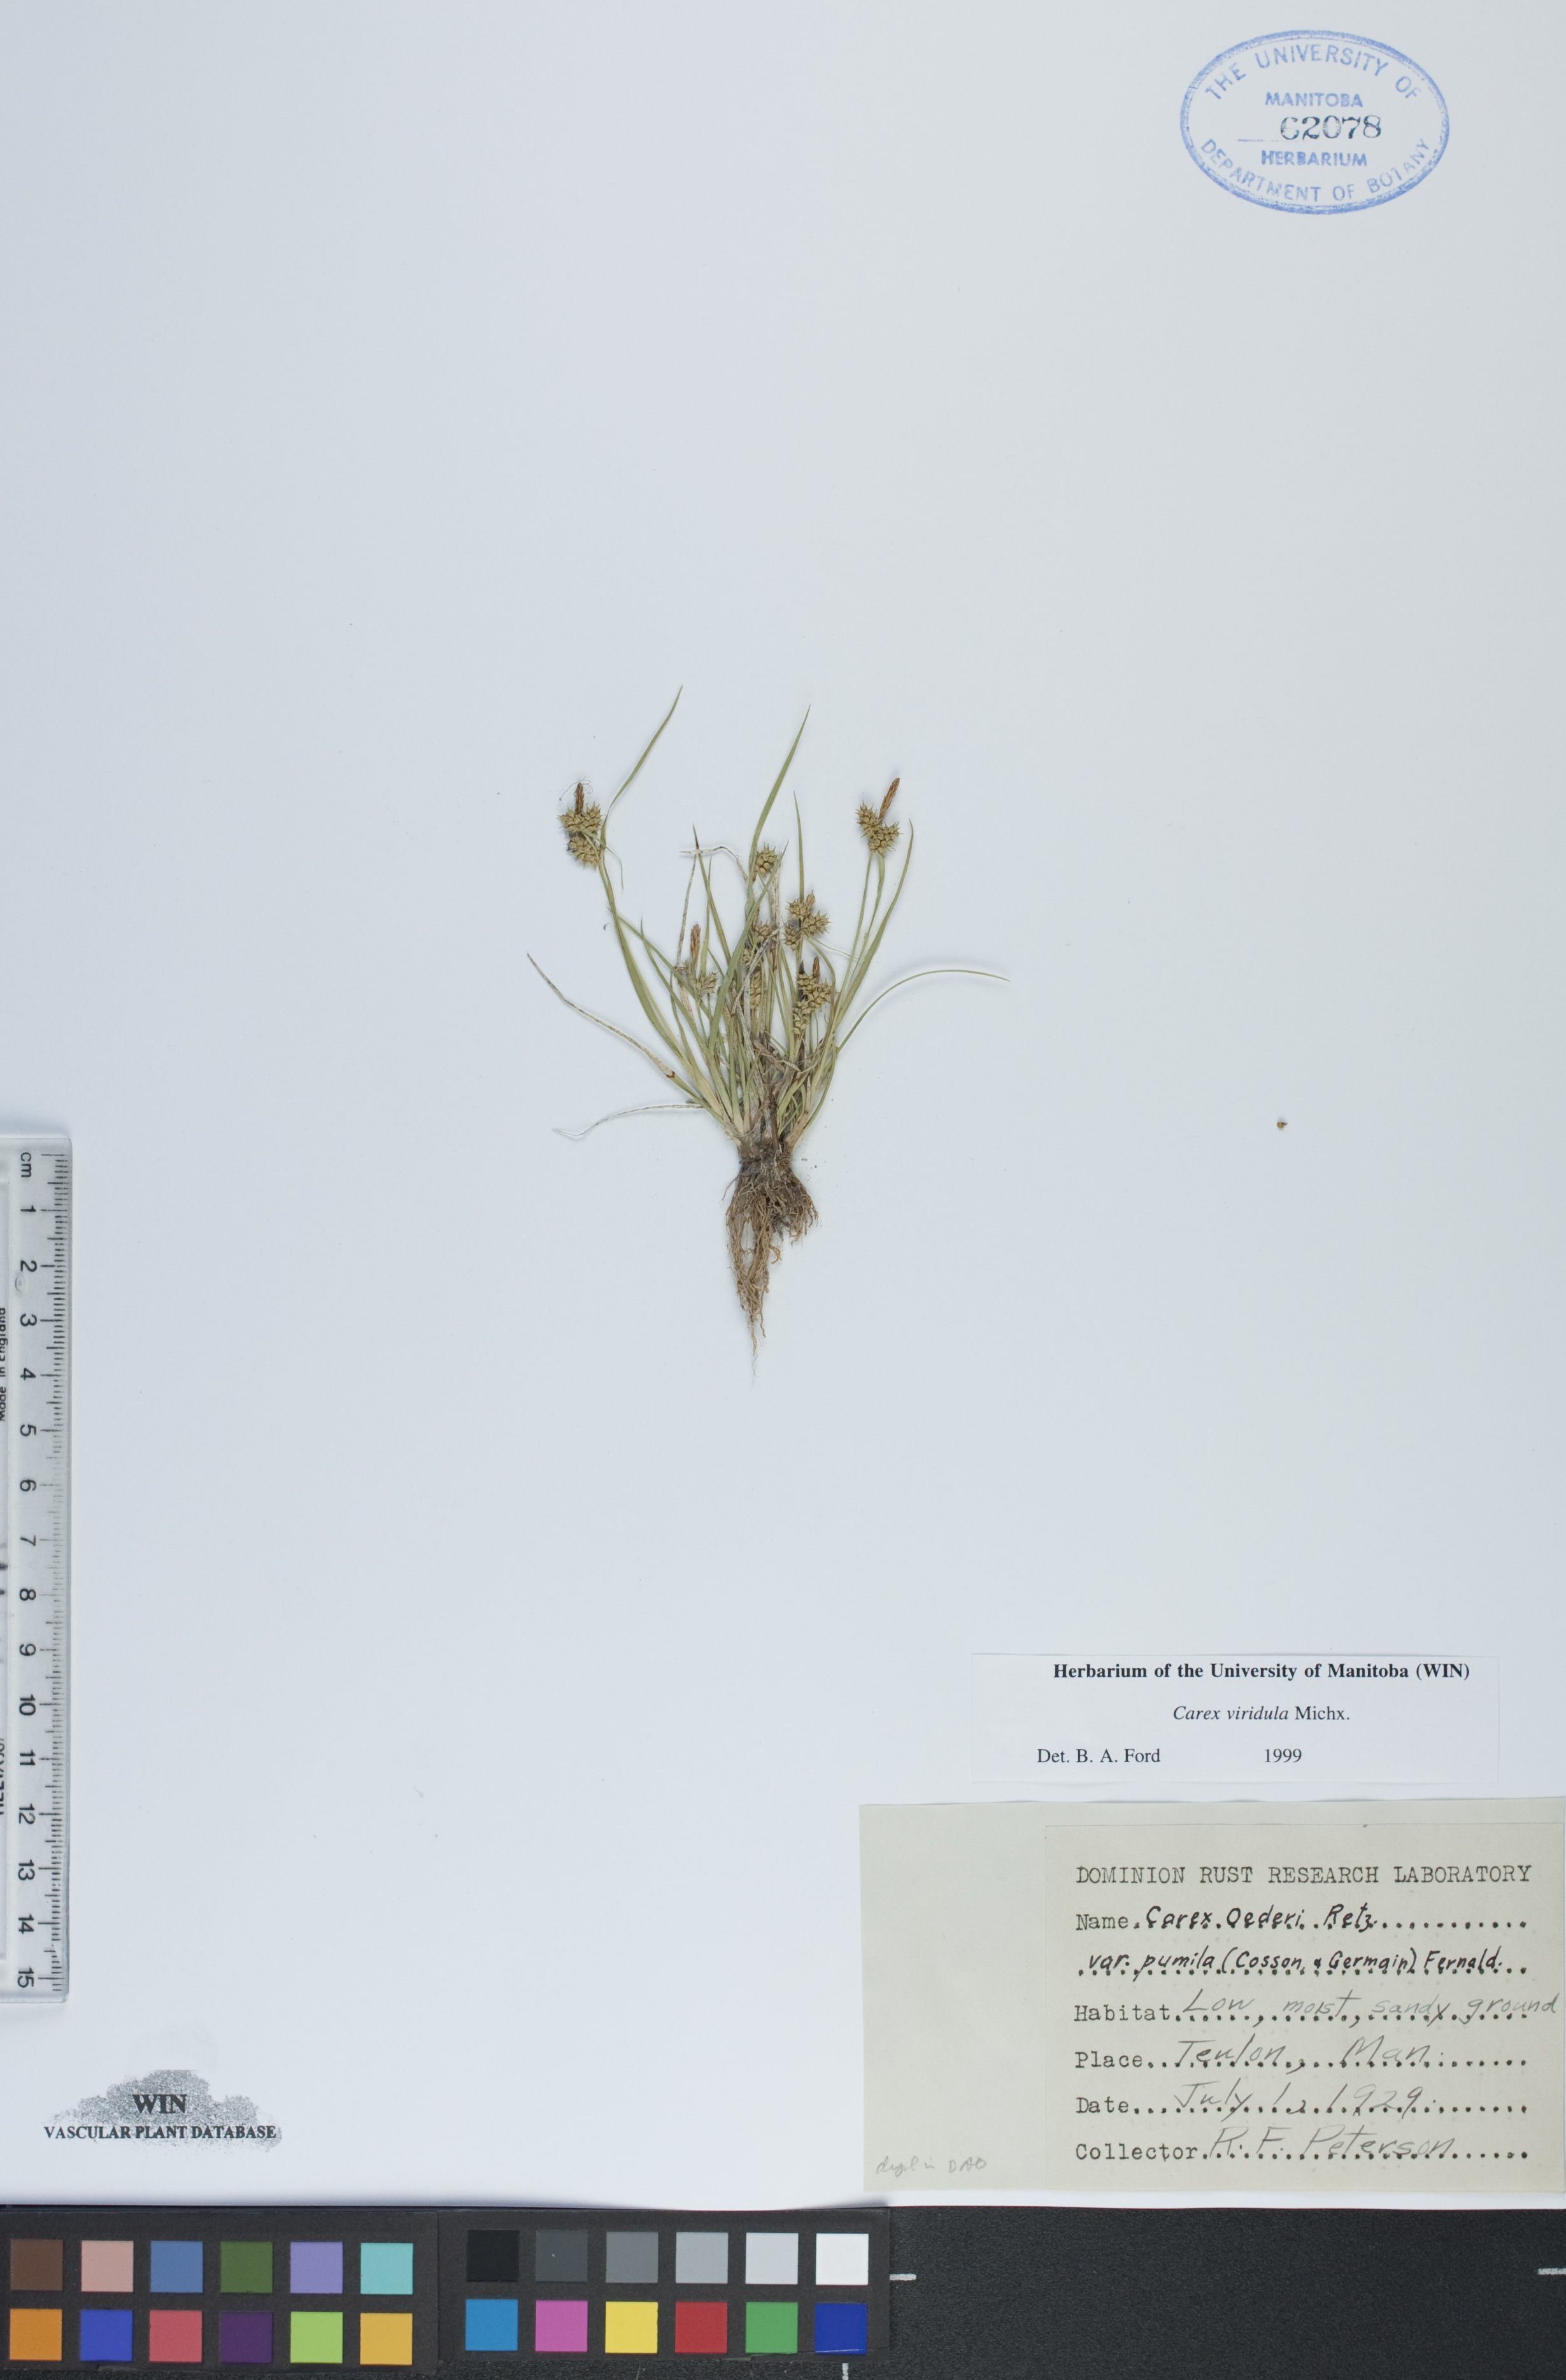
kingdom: Plantae
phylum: Tracheophyta
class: Liliopsida
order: Poales
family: Cyperaceae
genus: Carex
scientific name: Carex oederi
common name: Common & small-fruited yellow-sedge
